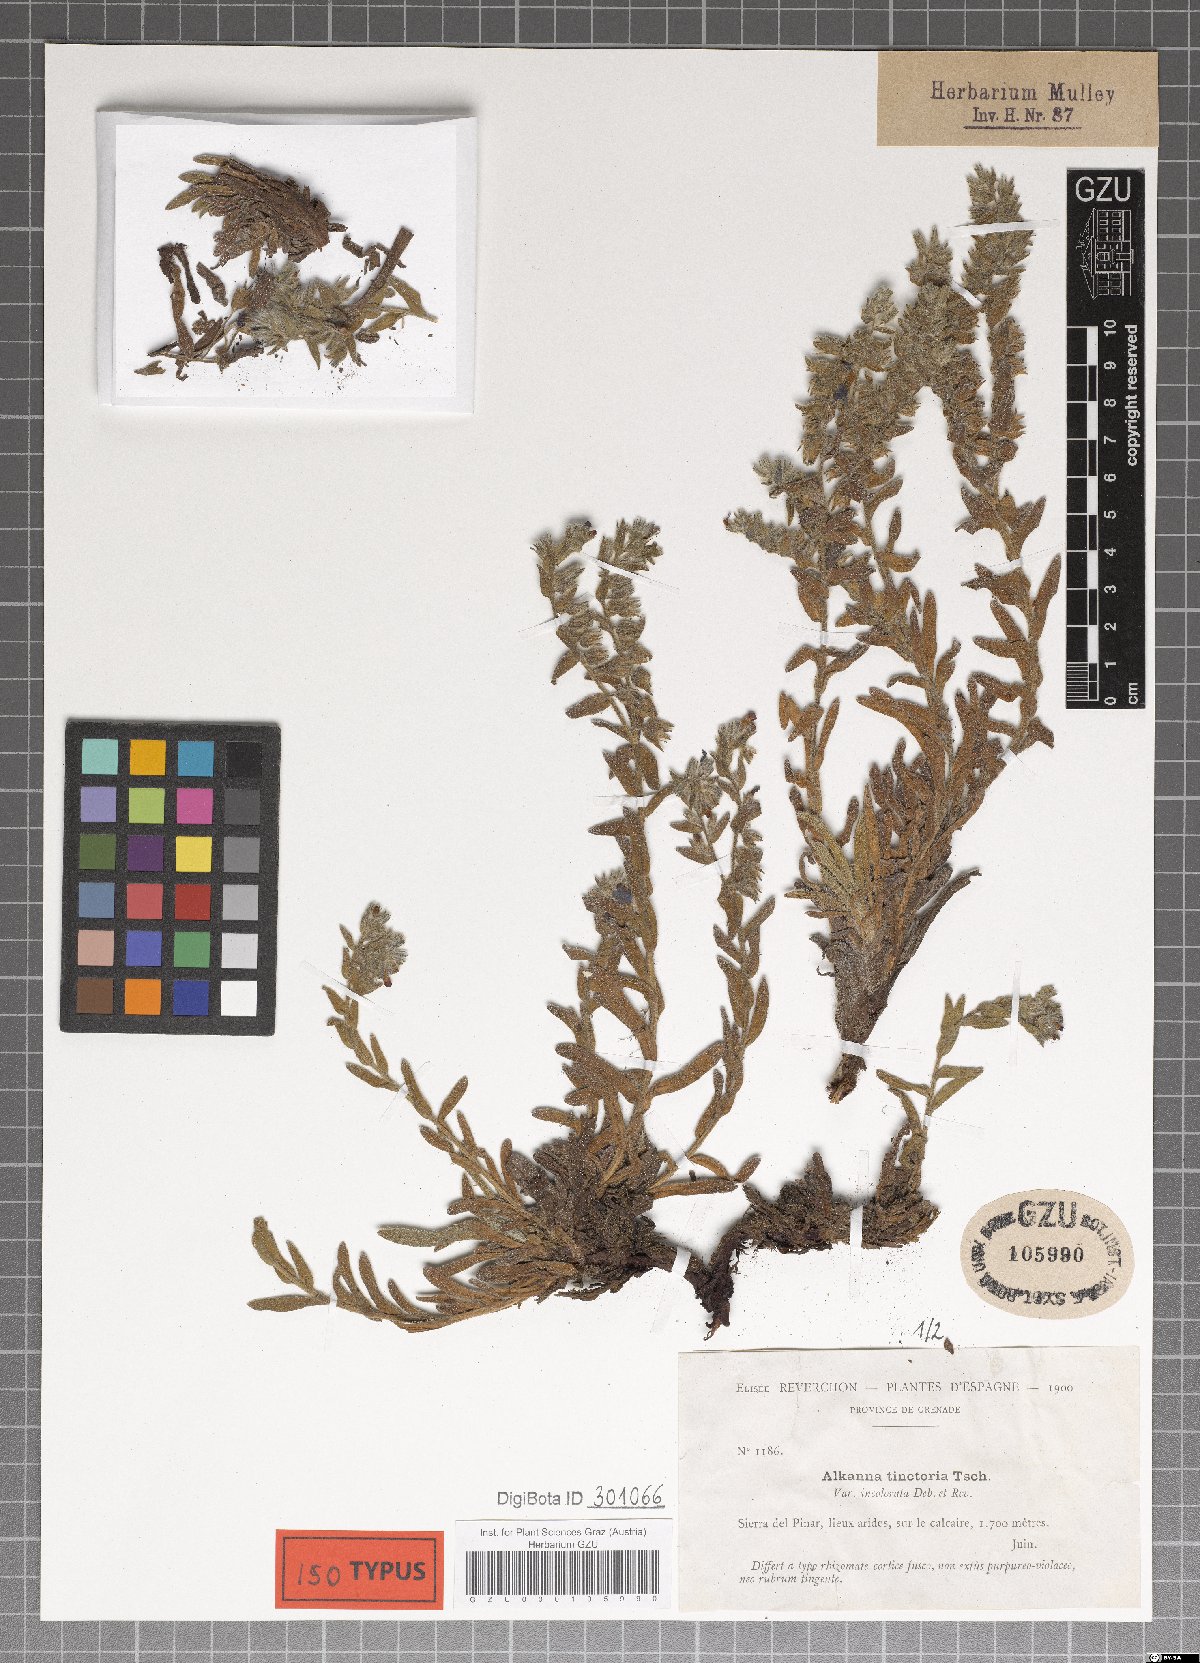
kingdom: Plantae
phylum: Tracheophyta
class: Magnoliopsida
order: Boraginales
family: Boraginaceae
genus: Alkanna
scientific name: Alkanna tinctoria
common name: Dyer's-alkanet
